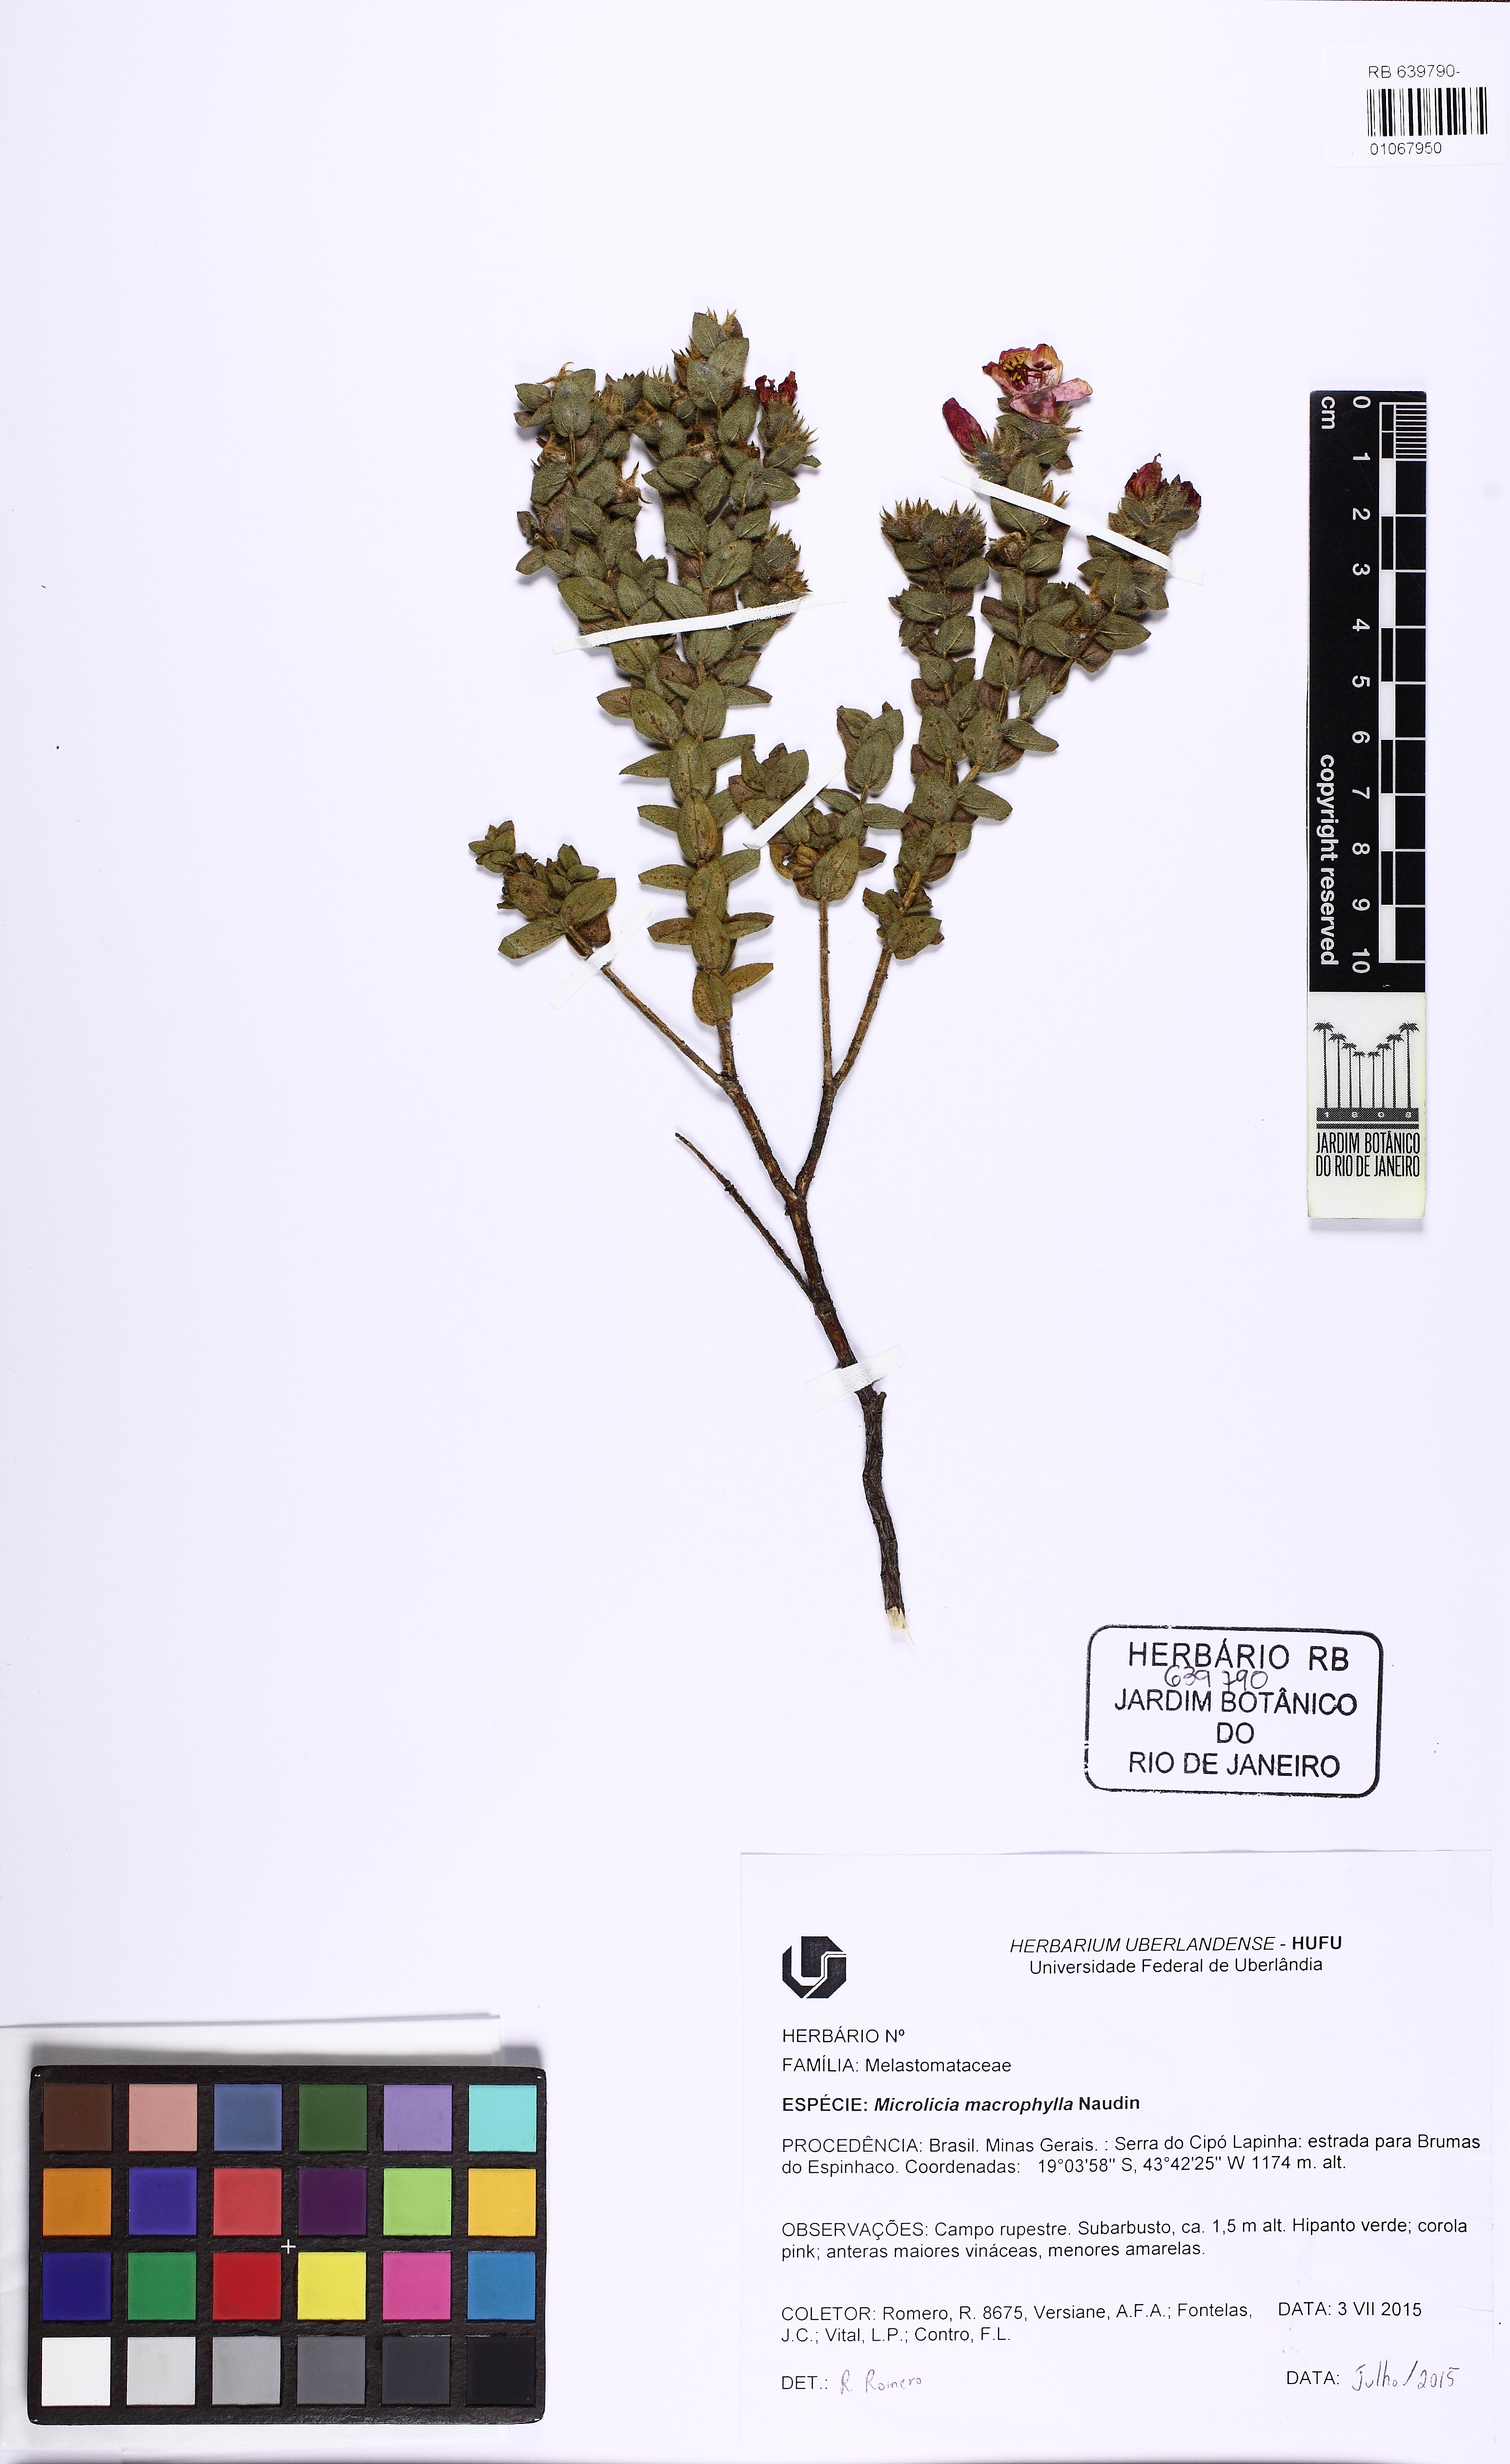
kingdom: Plantae
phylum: Tracheophyta
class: Magnoliopsida
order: Myrtales
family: Melastomataceae
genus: Microlicia
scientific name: Microlicia macrophylla
